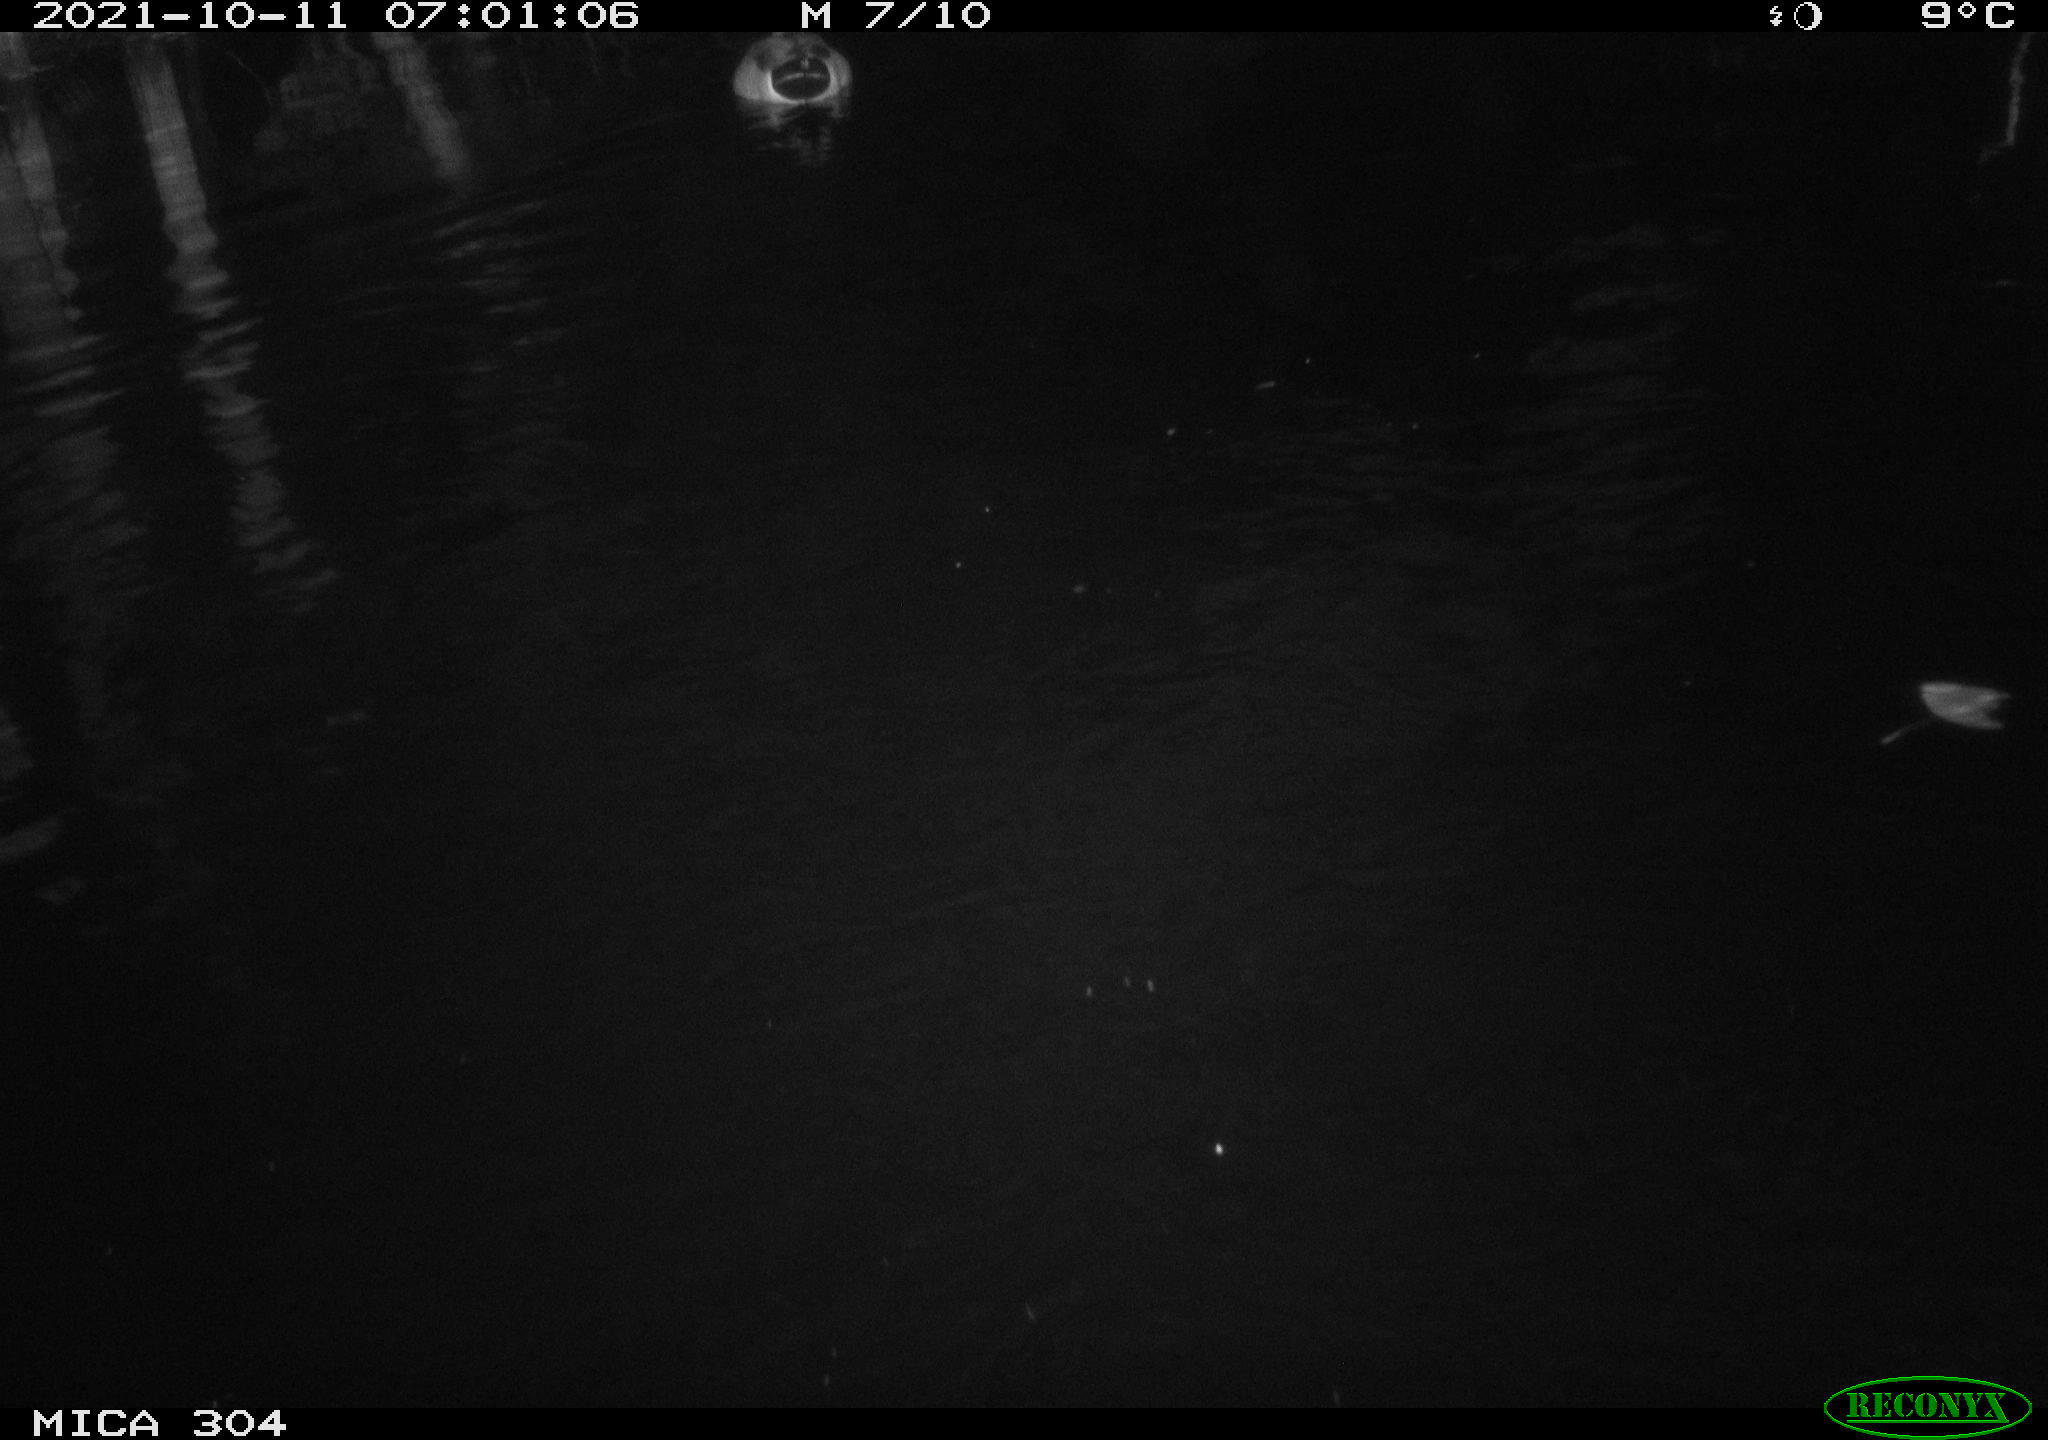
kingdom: Animalia
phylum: Chordata
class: Aves
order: Anseriformes
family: Anatidae
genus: Anas
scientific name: Anas platyrhynchos
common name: Mallard
